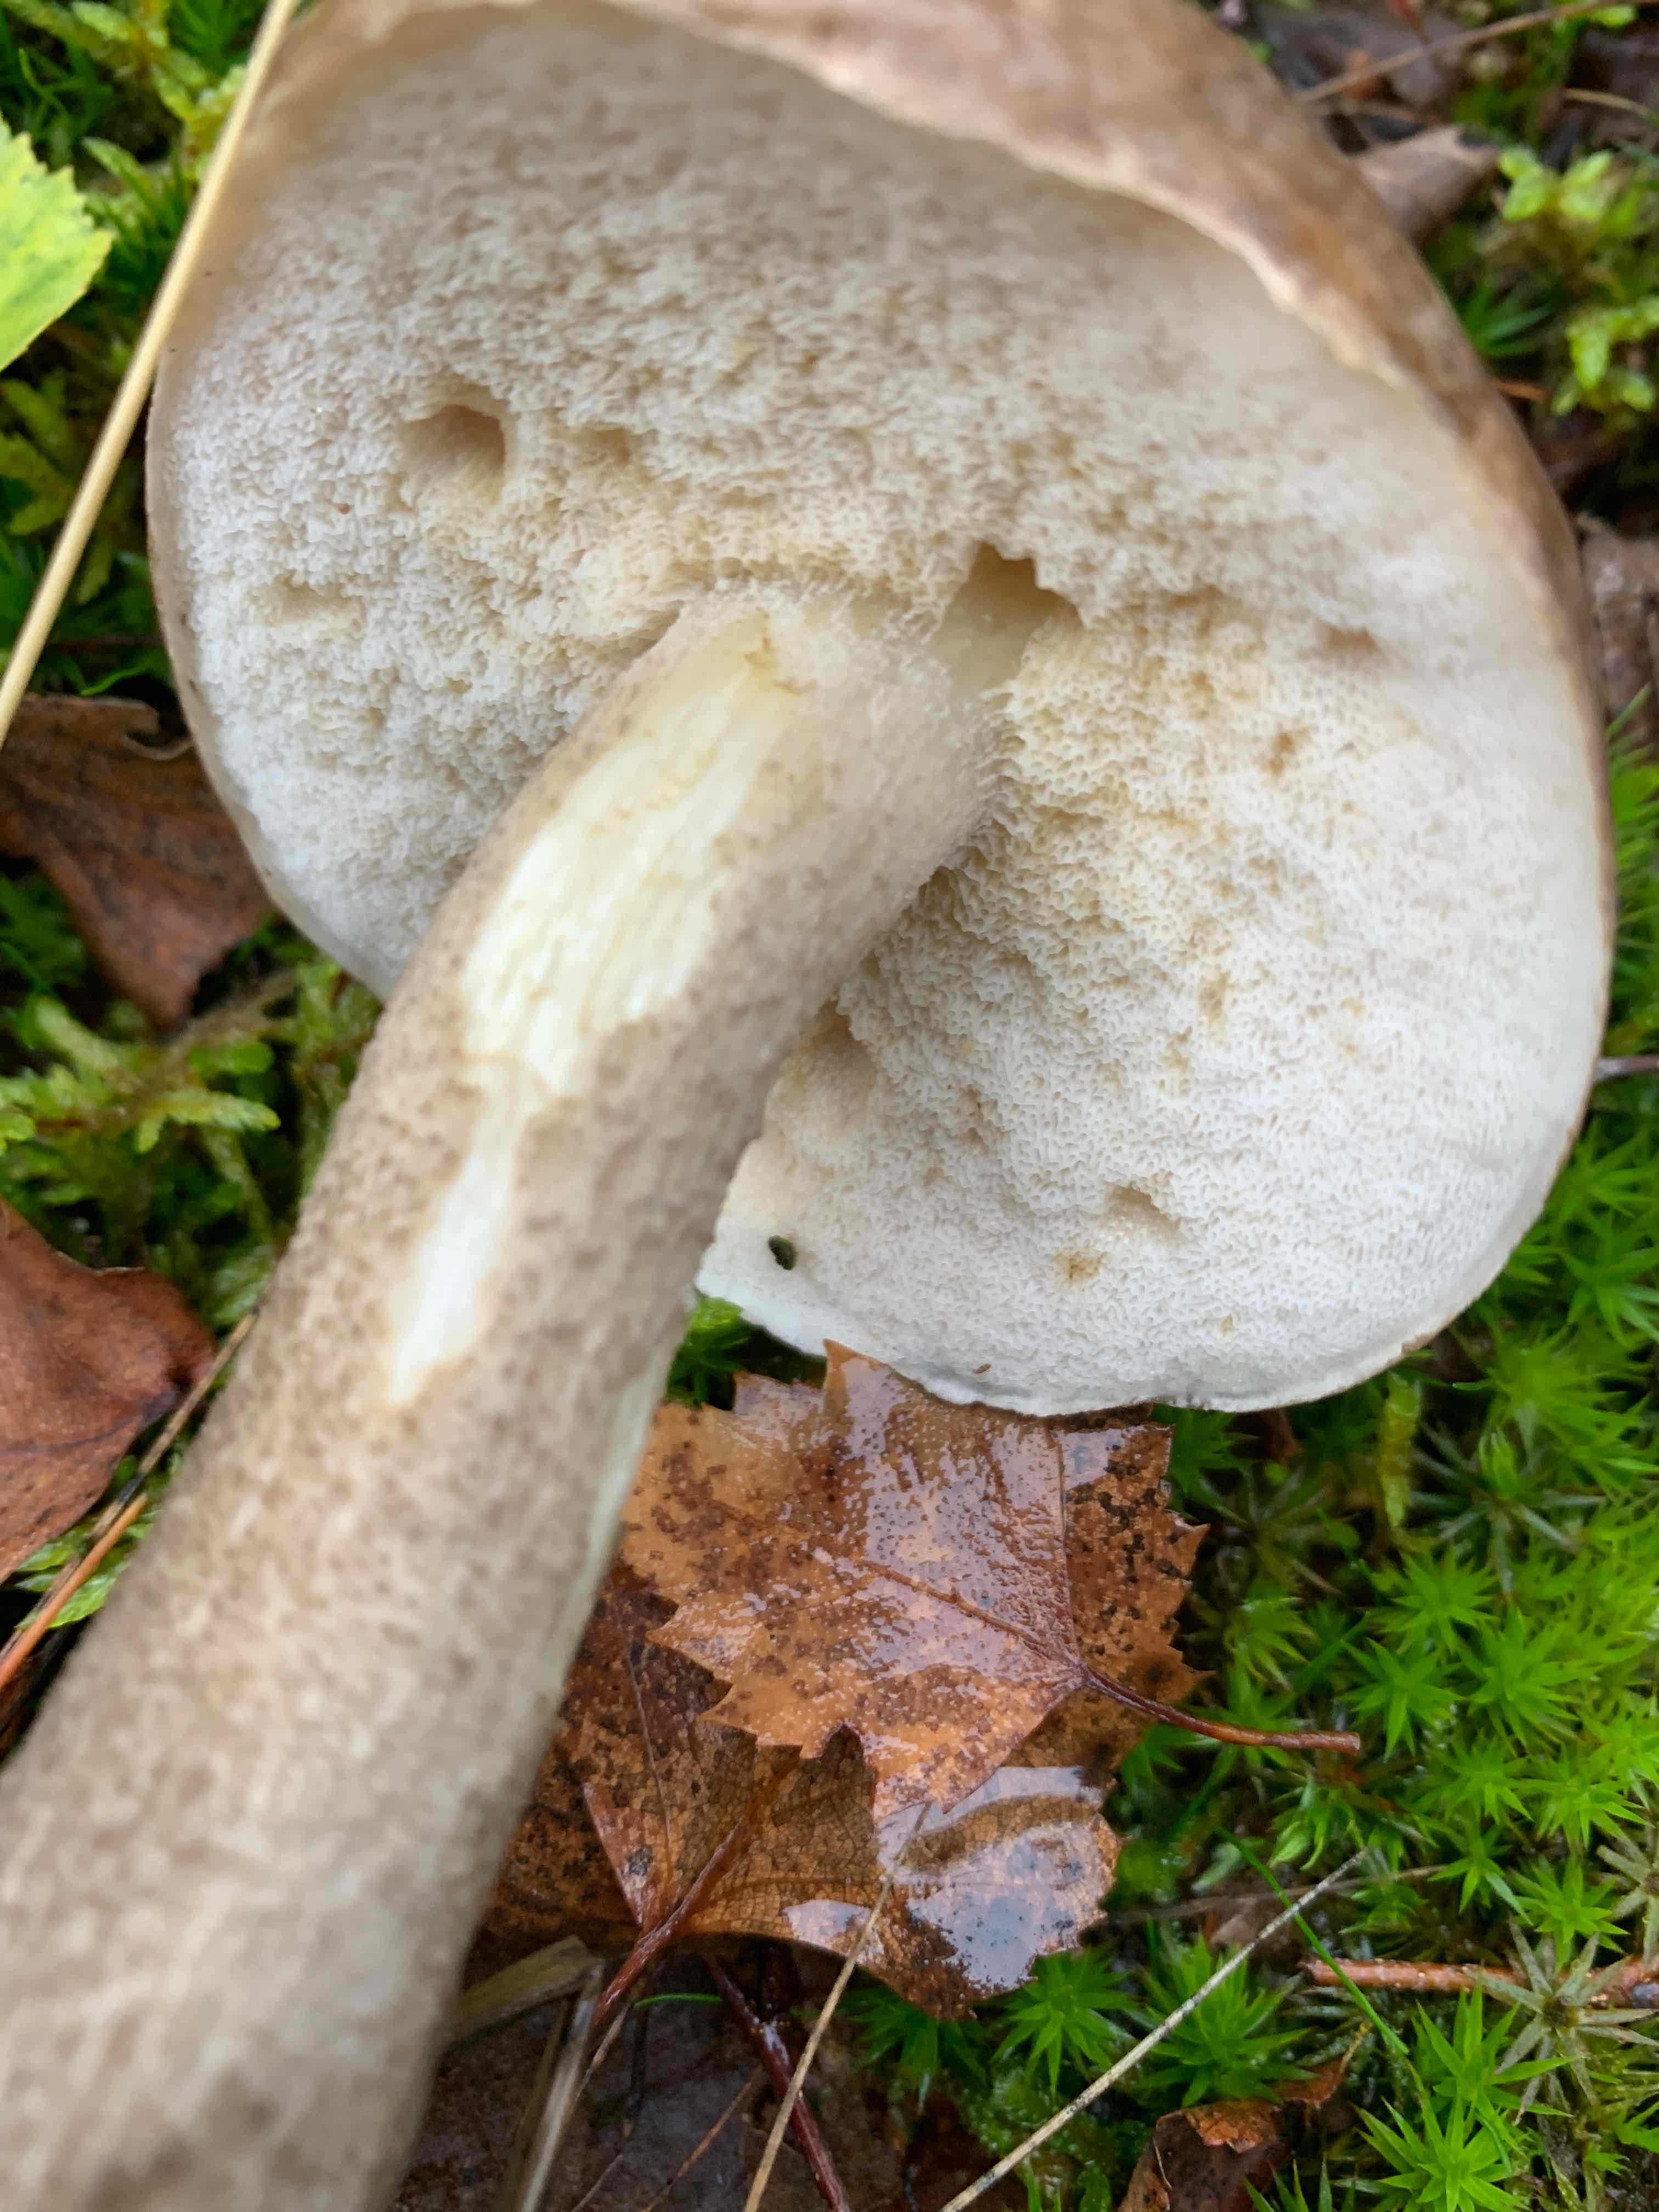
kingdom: Fungi
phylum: Basidiomycota
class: Agaricomycetes
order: Boletales
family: Boletaceae
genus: Leccinum
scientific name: Leccinum
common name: skælrørhat
